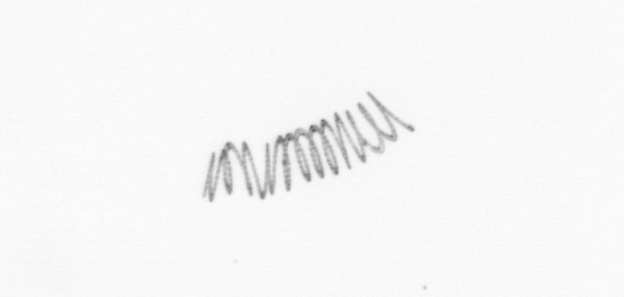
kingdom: Chromista
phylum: Ochrophyta
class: Bacillariophyceae
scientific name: Bacillariophyceae
